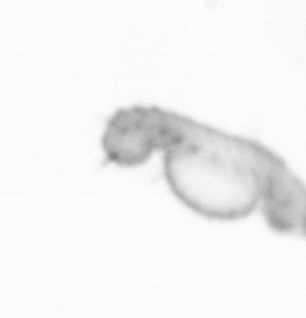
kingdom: Animalia
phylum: Annelida
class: Polychaeta
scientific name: Polychaeta
